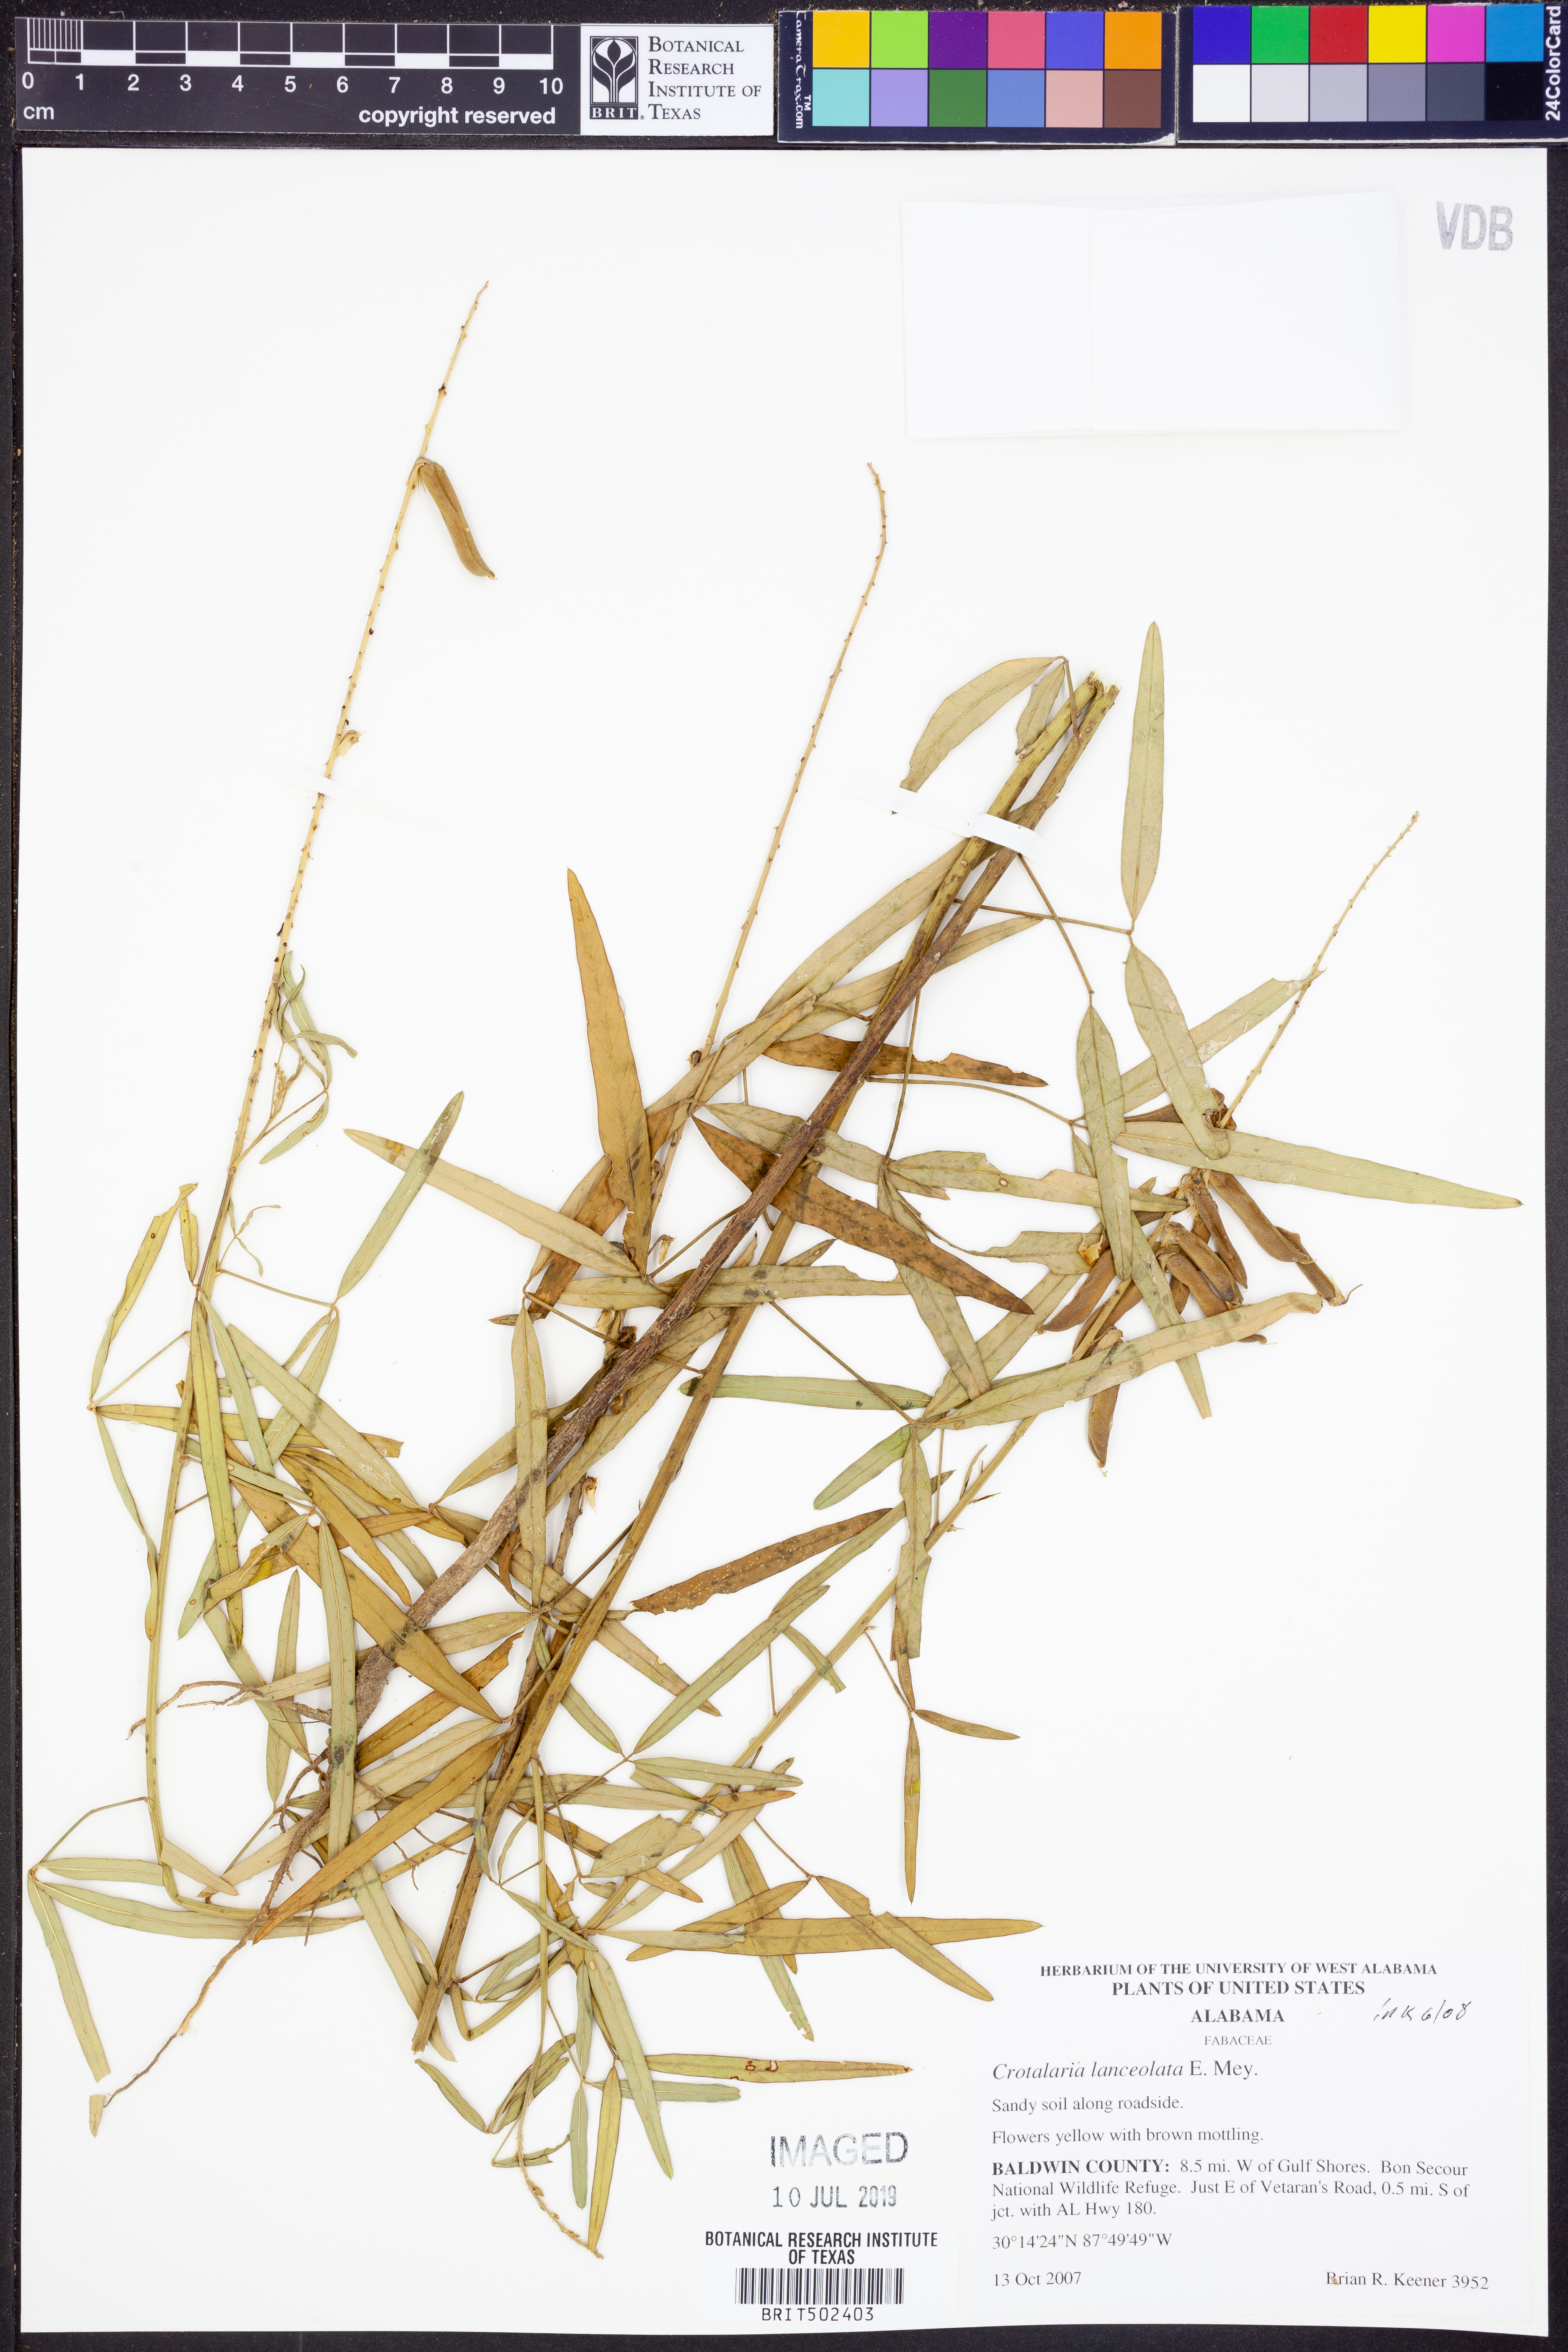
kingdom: Plantae
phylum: Tracheophyta
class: Magnoliopsida
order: Fabales
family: Fabaceae
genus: Crotalaria
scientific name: Crotalaria lanceolata
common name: Lanceleaf rattlebox
